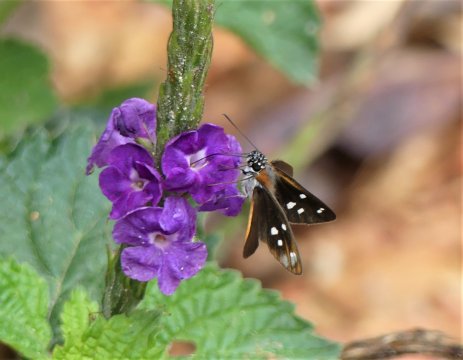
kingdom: Animalia
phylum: Arthropoda
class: Insecta
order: Lepidoptera
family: Hesperiidae
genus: Vettius
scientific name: Vettius coryna
